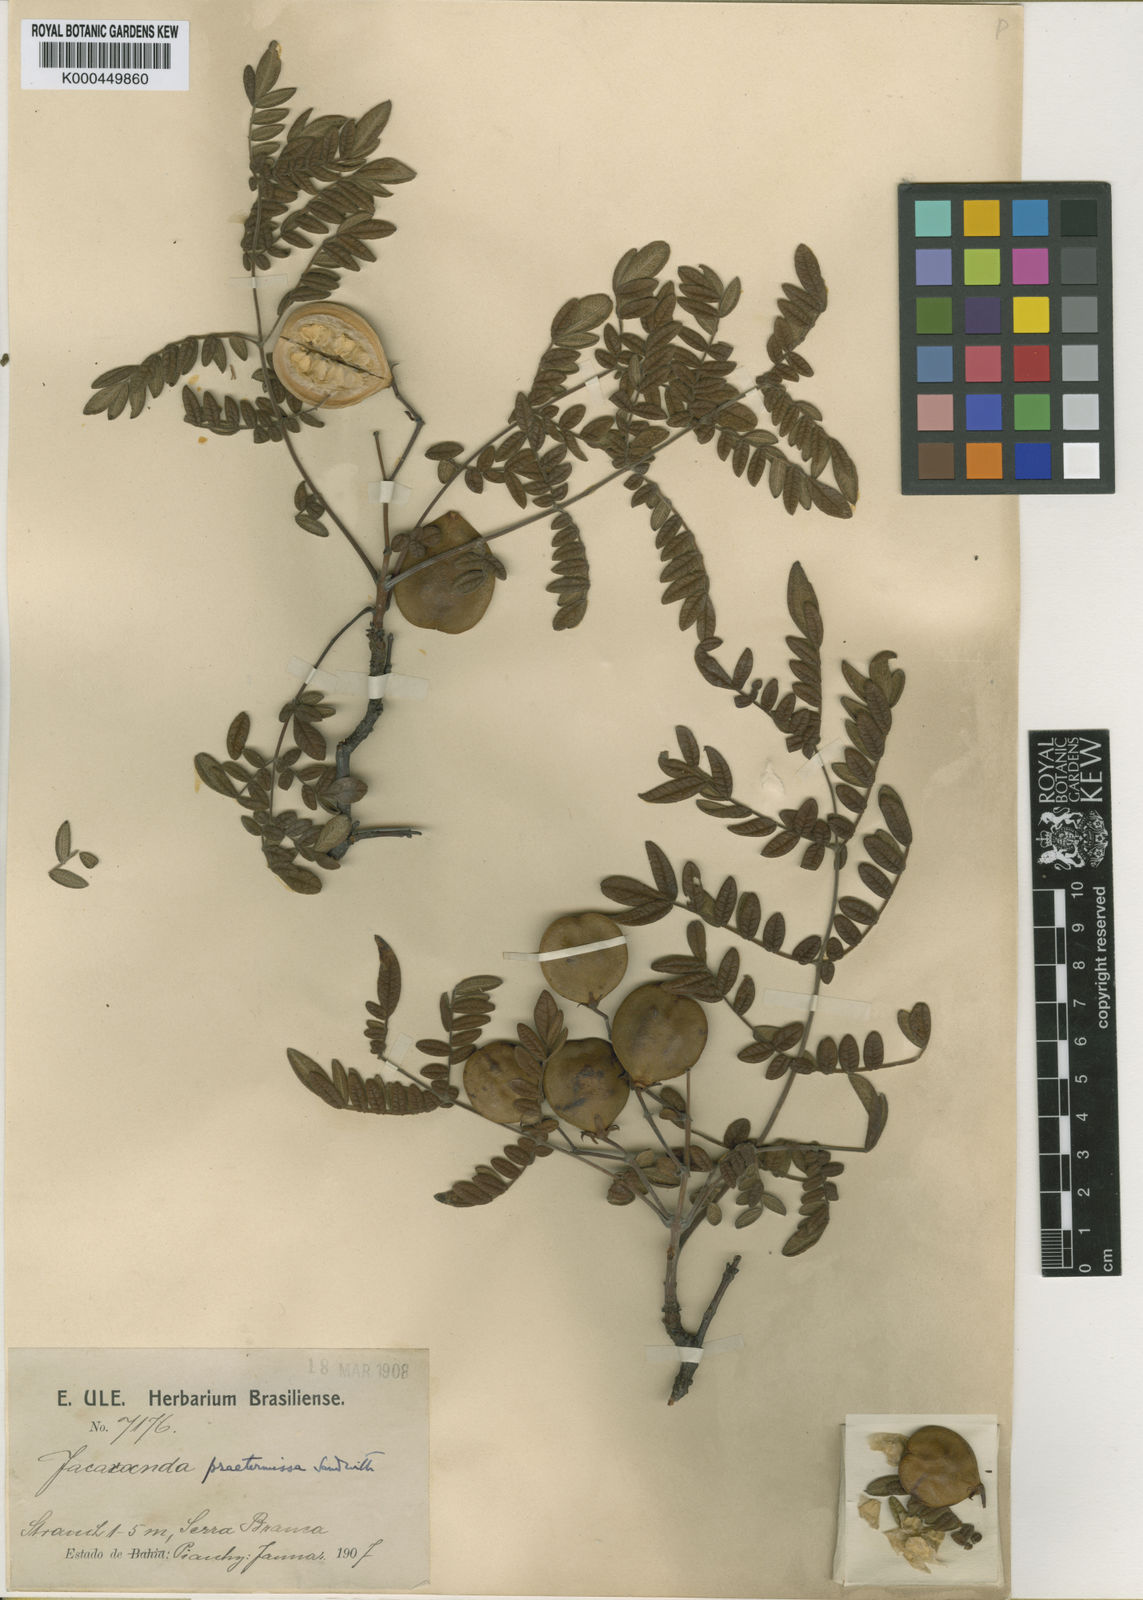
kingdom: Plantae
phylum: Tracheophyta
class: Magnoliopsida
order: Lamiales
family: Bignoniaceae
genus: Jacaranda
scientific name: Jacaranda praetermissa
